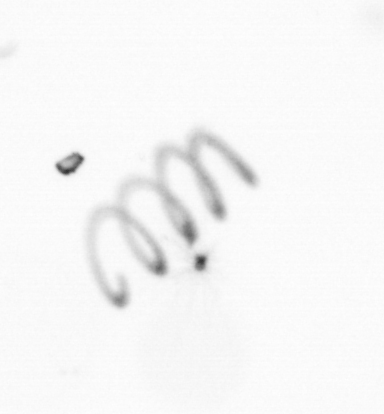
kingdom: Chromista
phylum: Ochrophyta
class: Bacillariophyceae
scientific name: Bacillariophyceae
